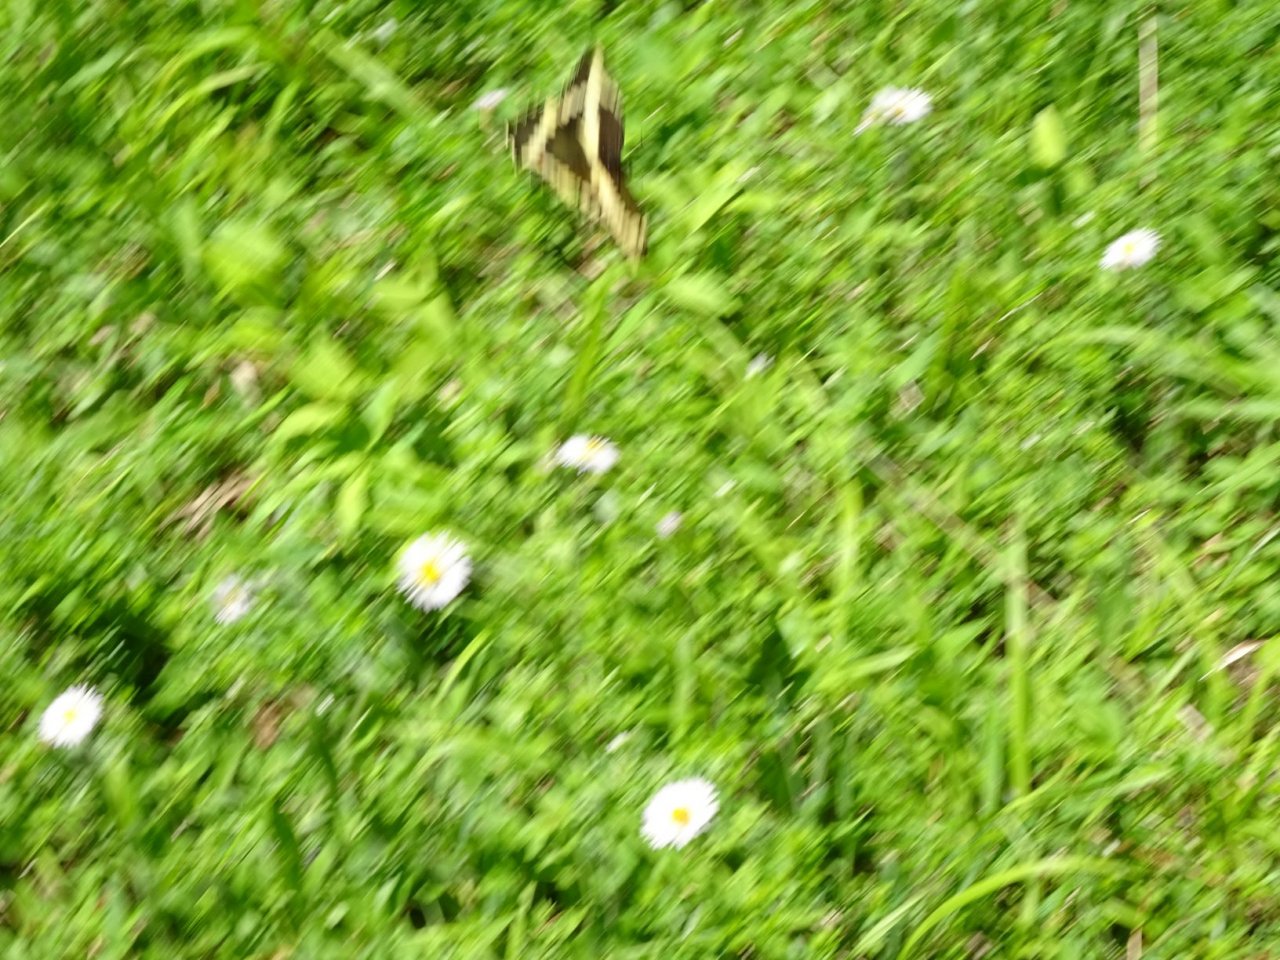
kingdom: Animalia
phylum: Arthropoda
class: Insecta
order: Lepidoptera
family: Papilionidae
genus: Papilio
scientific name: Papilio cresphontes
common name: Eastern Giant Swallowtail
